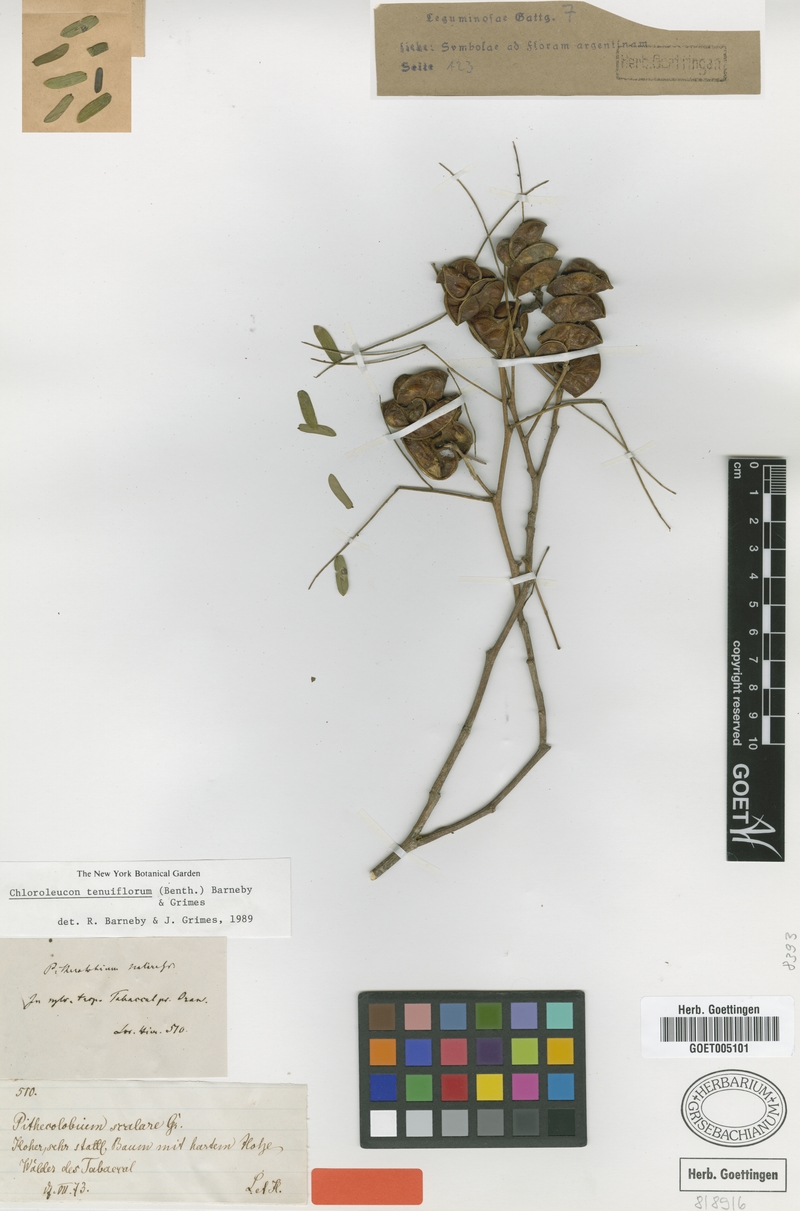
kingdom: Plantae
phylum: Tracheophyta
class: Magnoliopsida
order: Fabales
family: Fabaceae
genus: Chloroleucon
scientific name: Chloroleucon tenuiflorum
